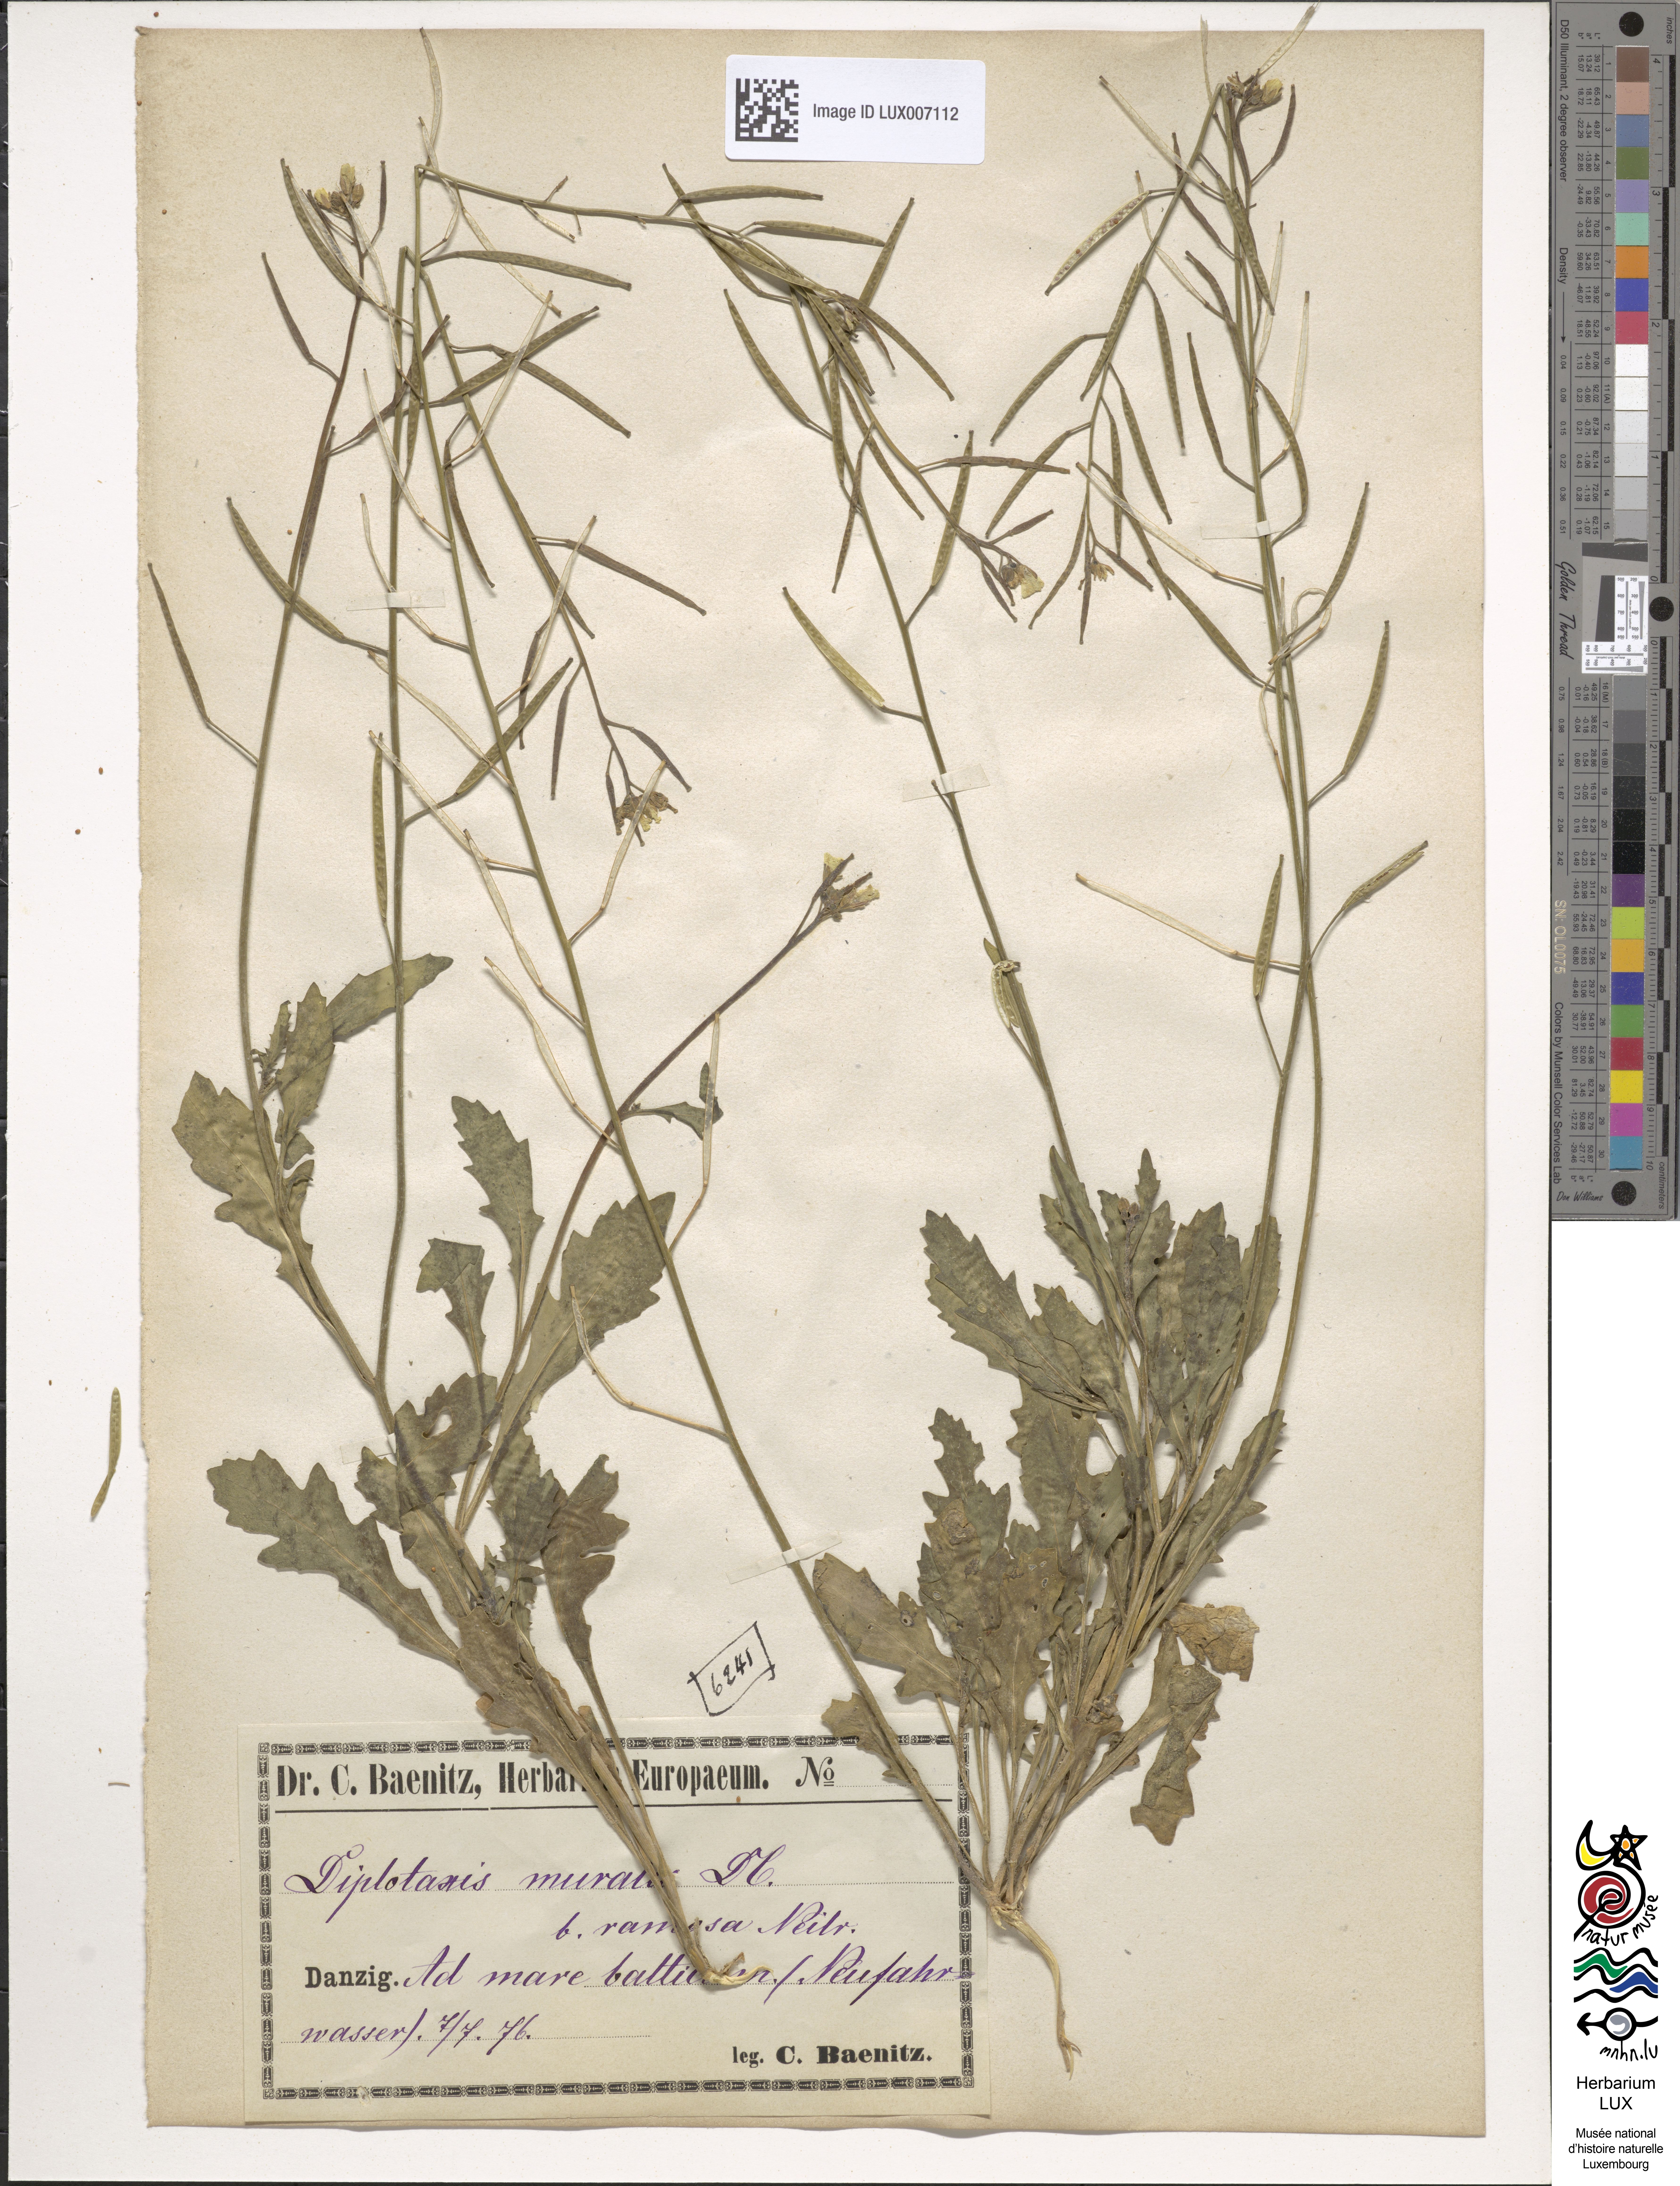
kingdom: Plantae
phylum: Tracheophyta
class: Magnoliopsida
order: Brassicales
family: Brassicaceae
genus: Diplotaxis
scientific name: Diplotaxis muralis
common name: Annual wall-rocket
